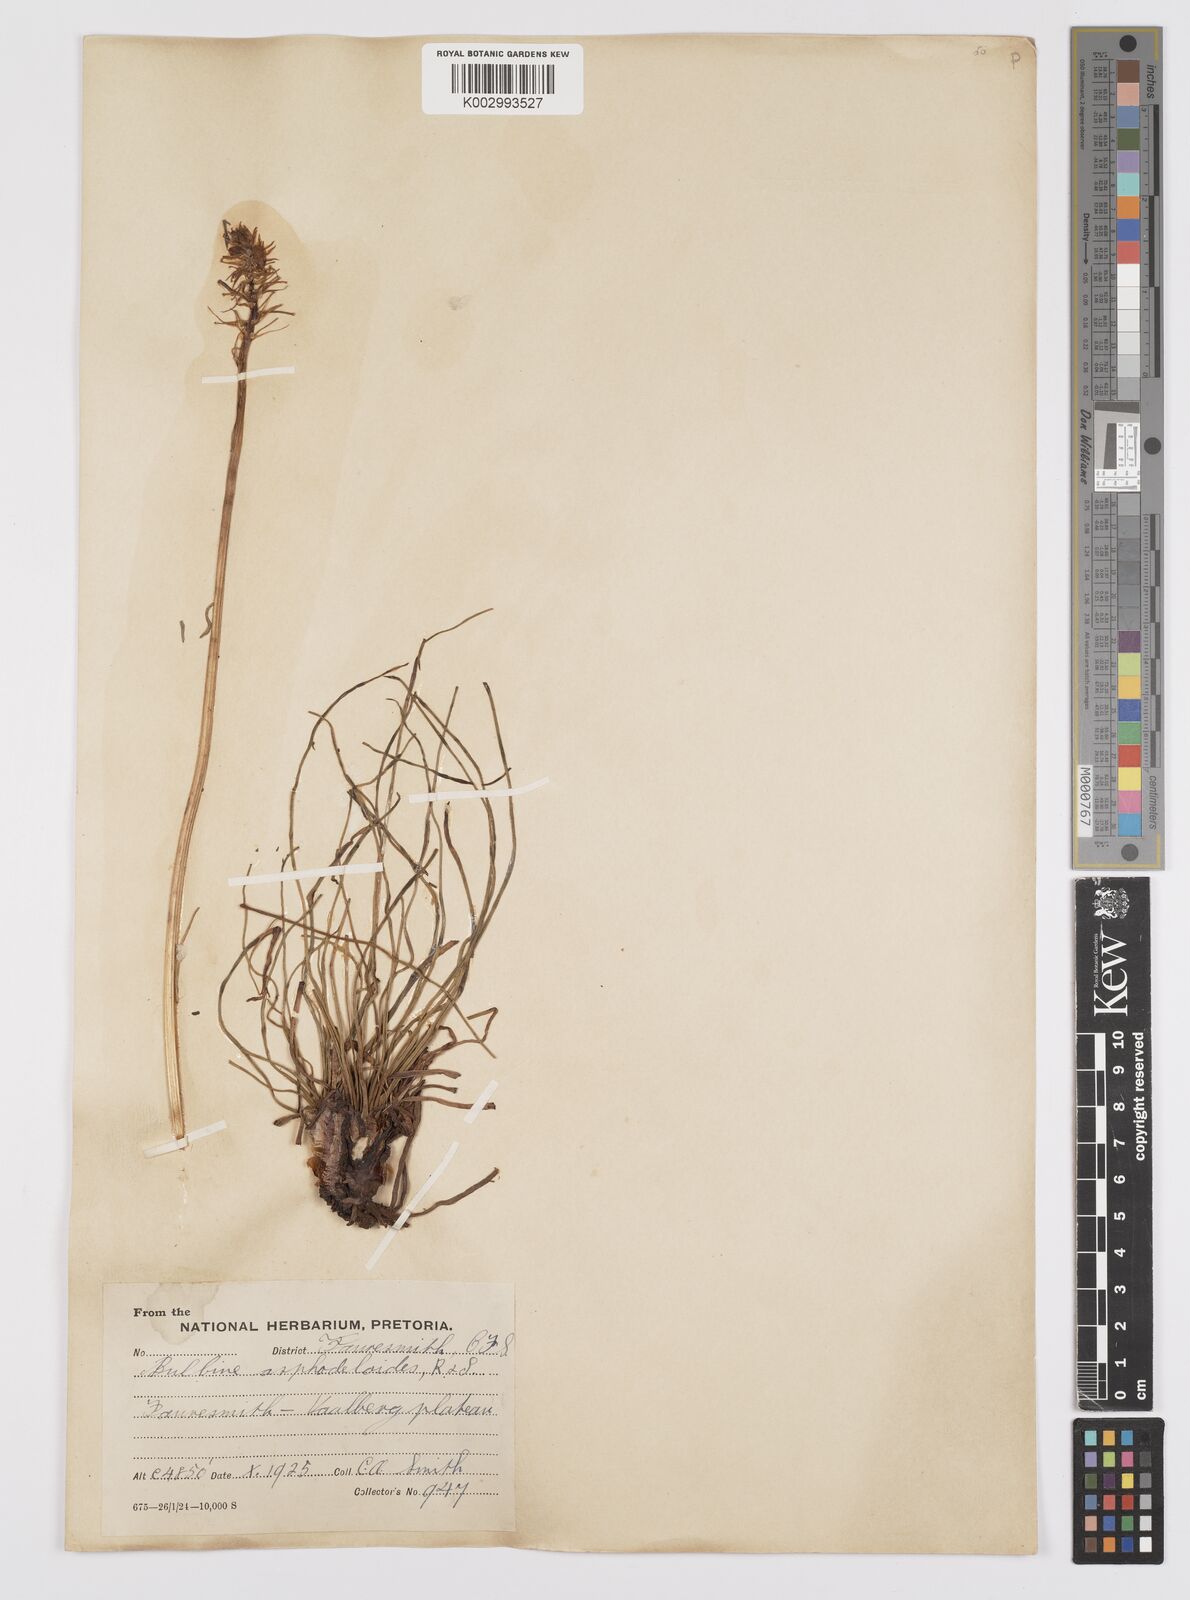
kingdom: Plantae
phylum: Tracheophyta
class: Liliopsida
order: Asparagales
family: Asphodelaceae
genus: Bulbine
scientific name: Bulbine asphodeloides
